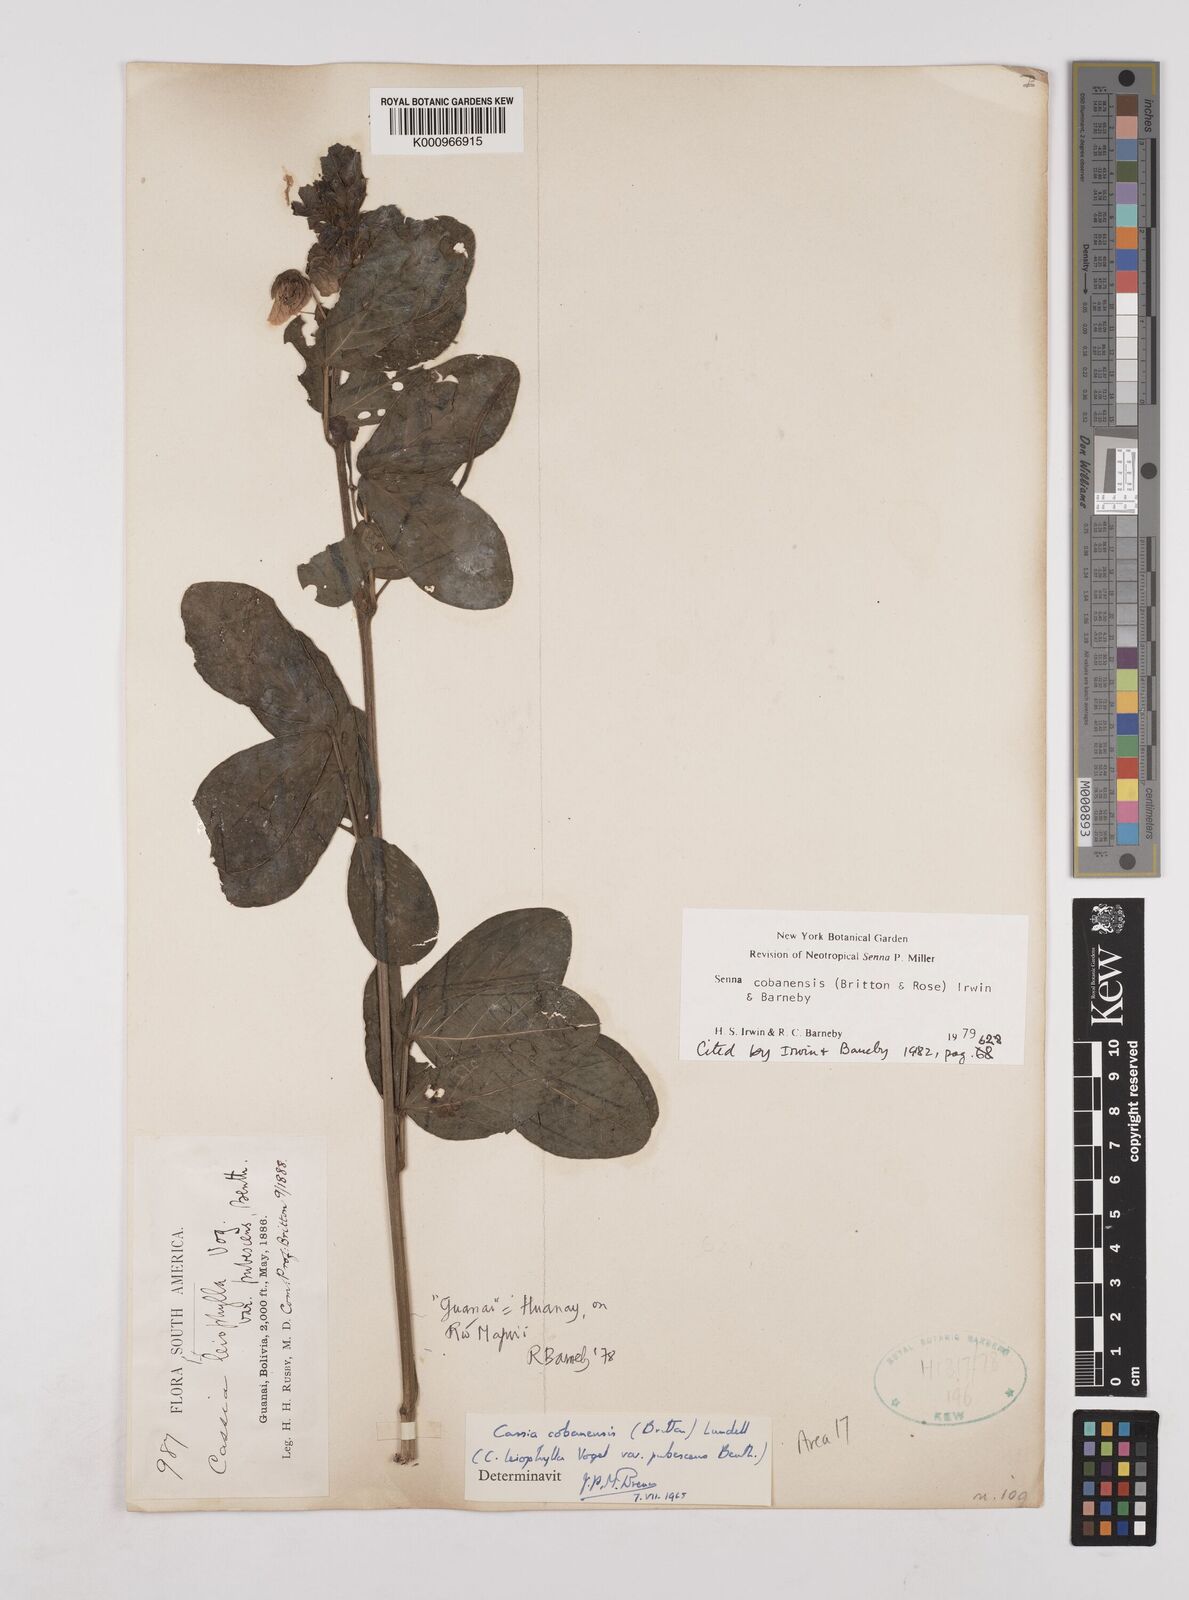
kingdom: Plantae
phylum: Tracheophyta
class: Magnoliopsida
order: Fabales
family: Fabaceae
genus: Senna
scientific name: Senna cobanensis
